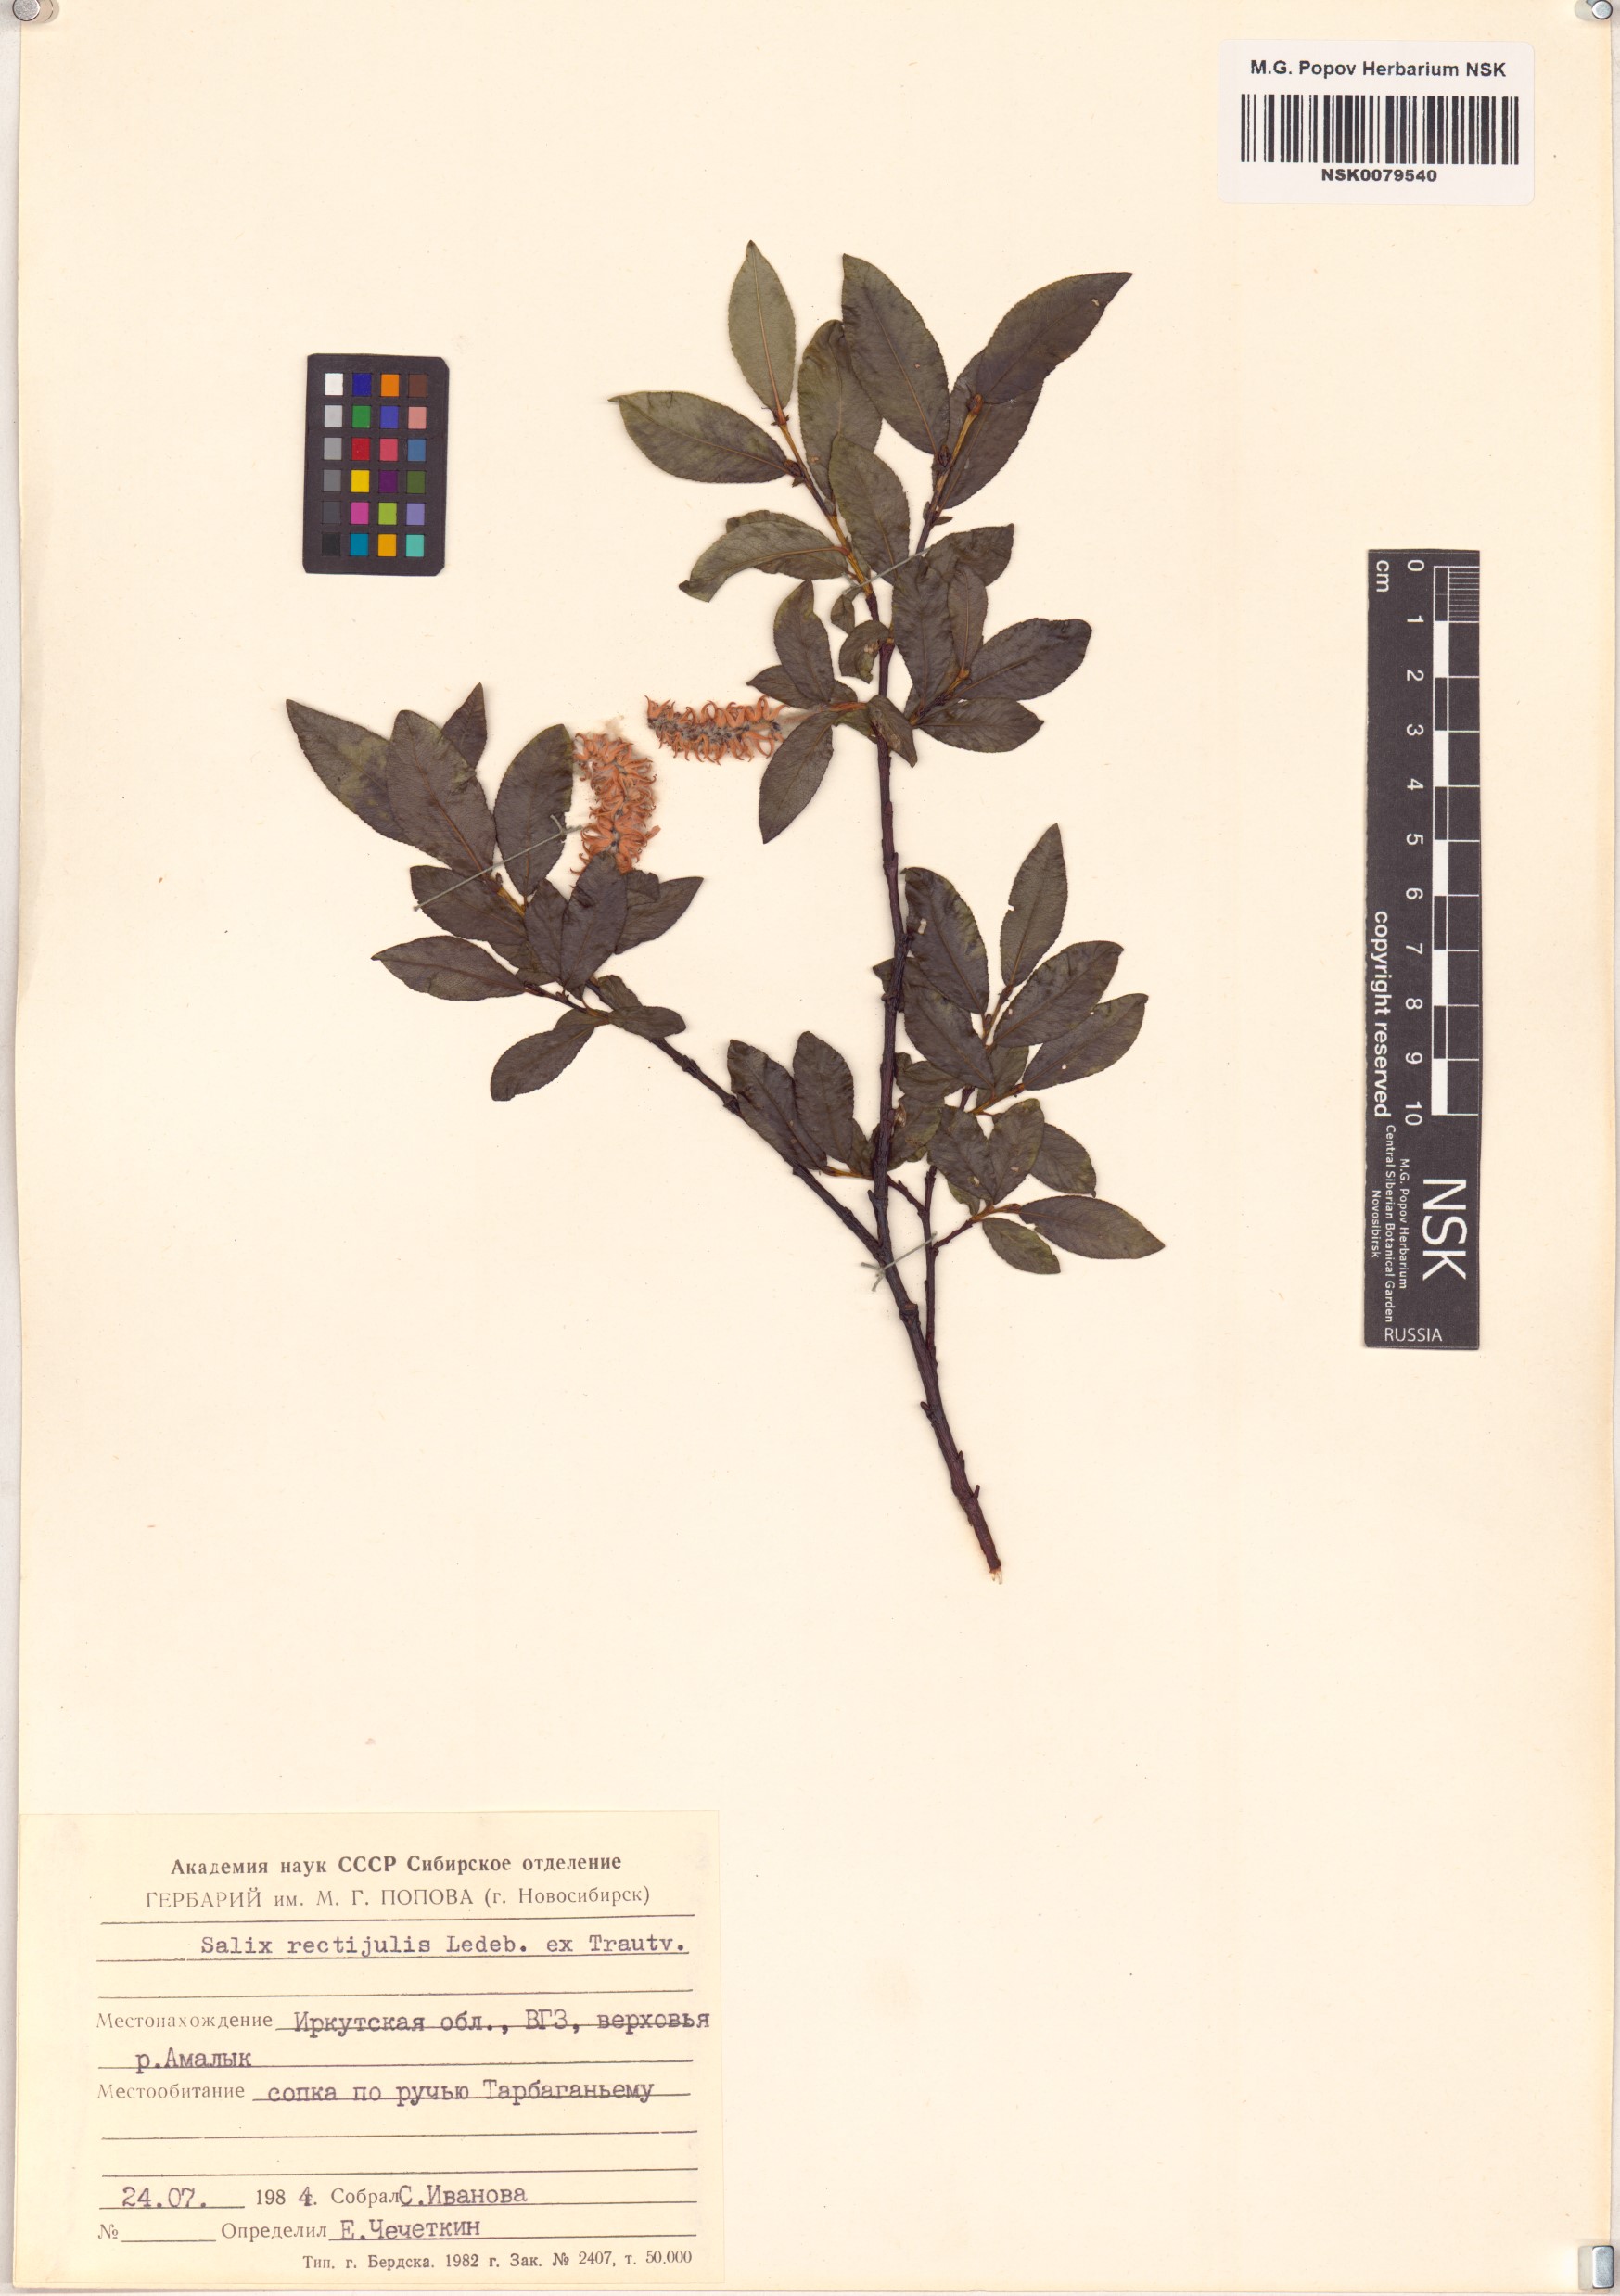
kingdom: Plantae
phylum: Tracheophyta
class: Magnoliopsida
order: Malpighiales
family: Salicaceae
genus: Salix
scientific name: Salix rectijulis
